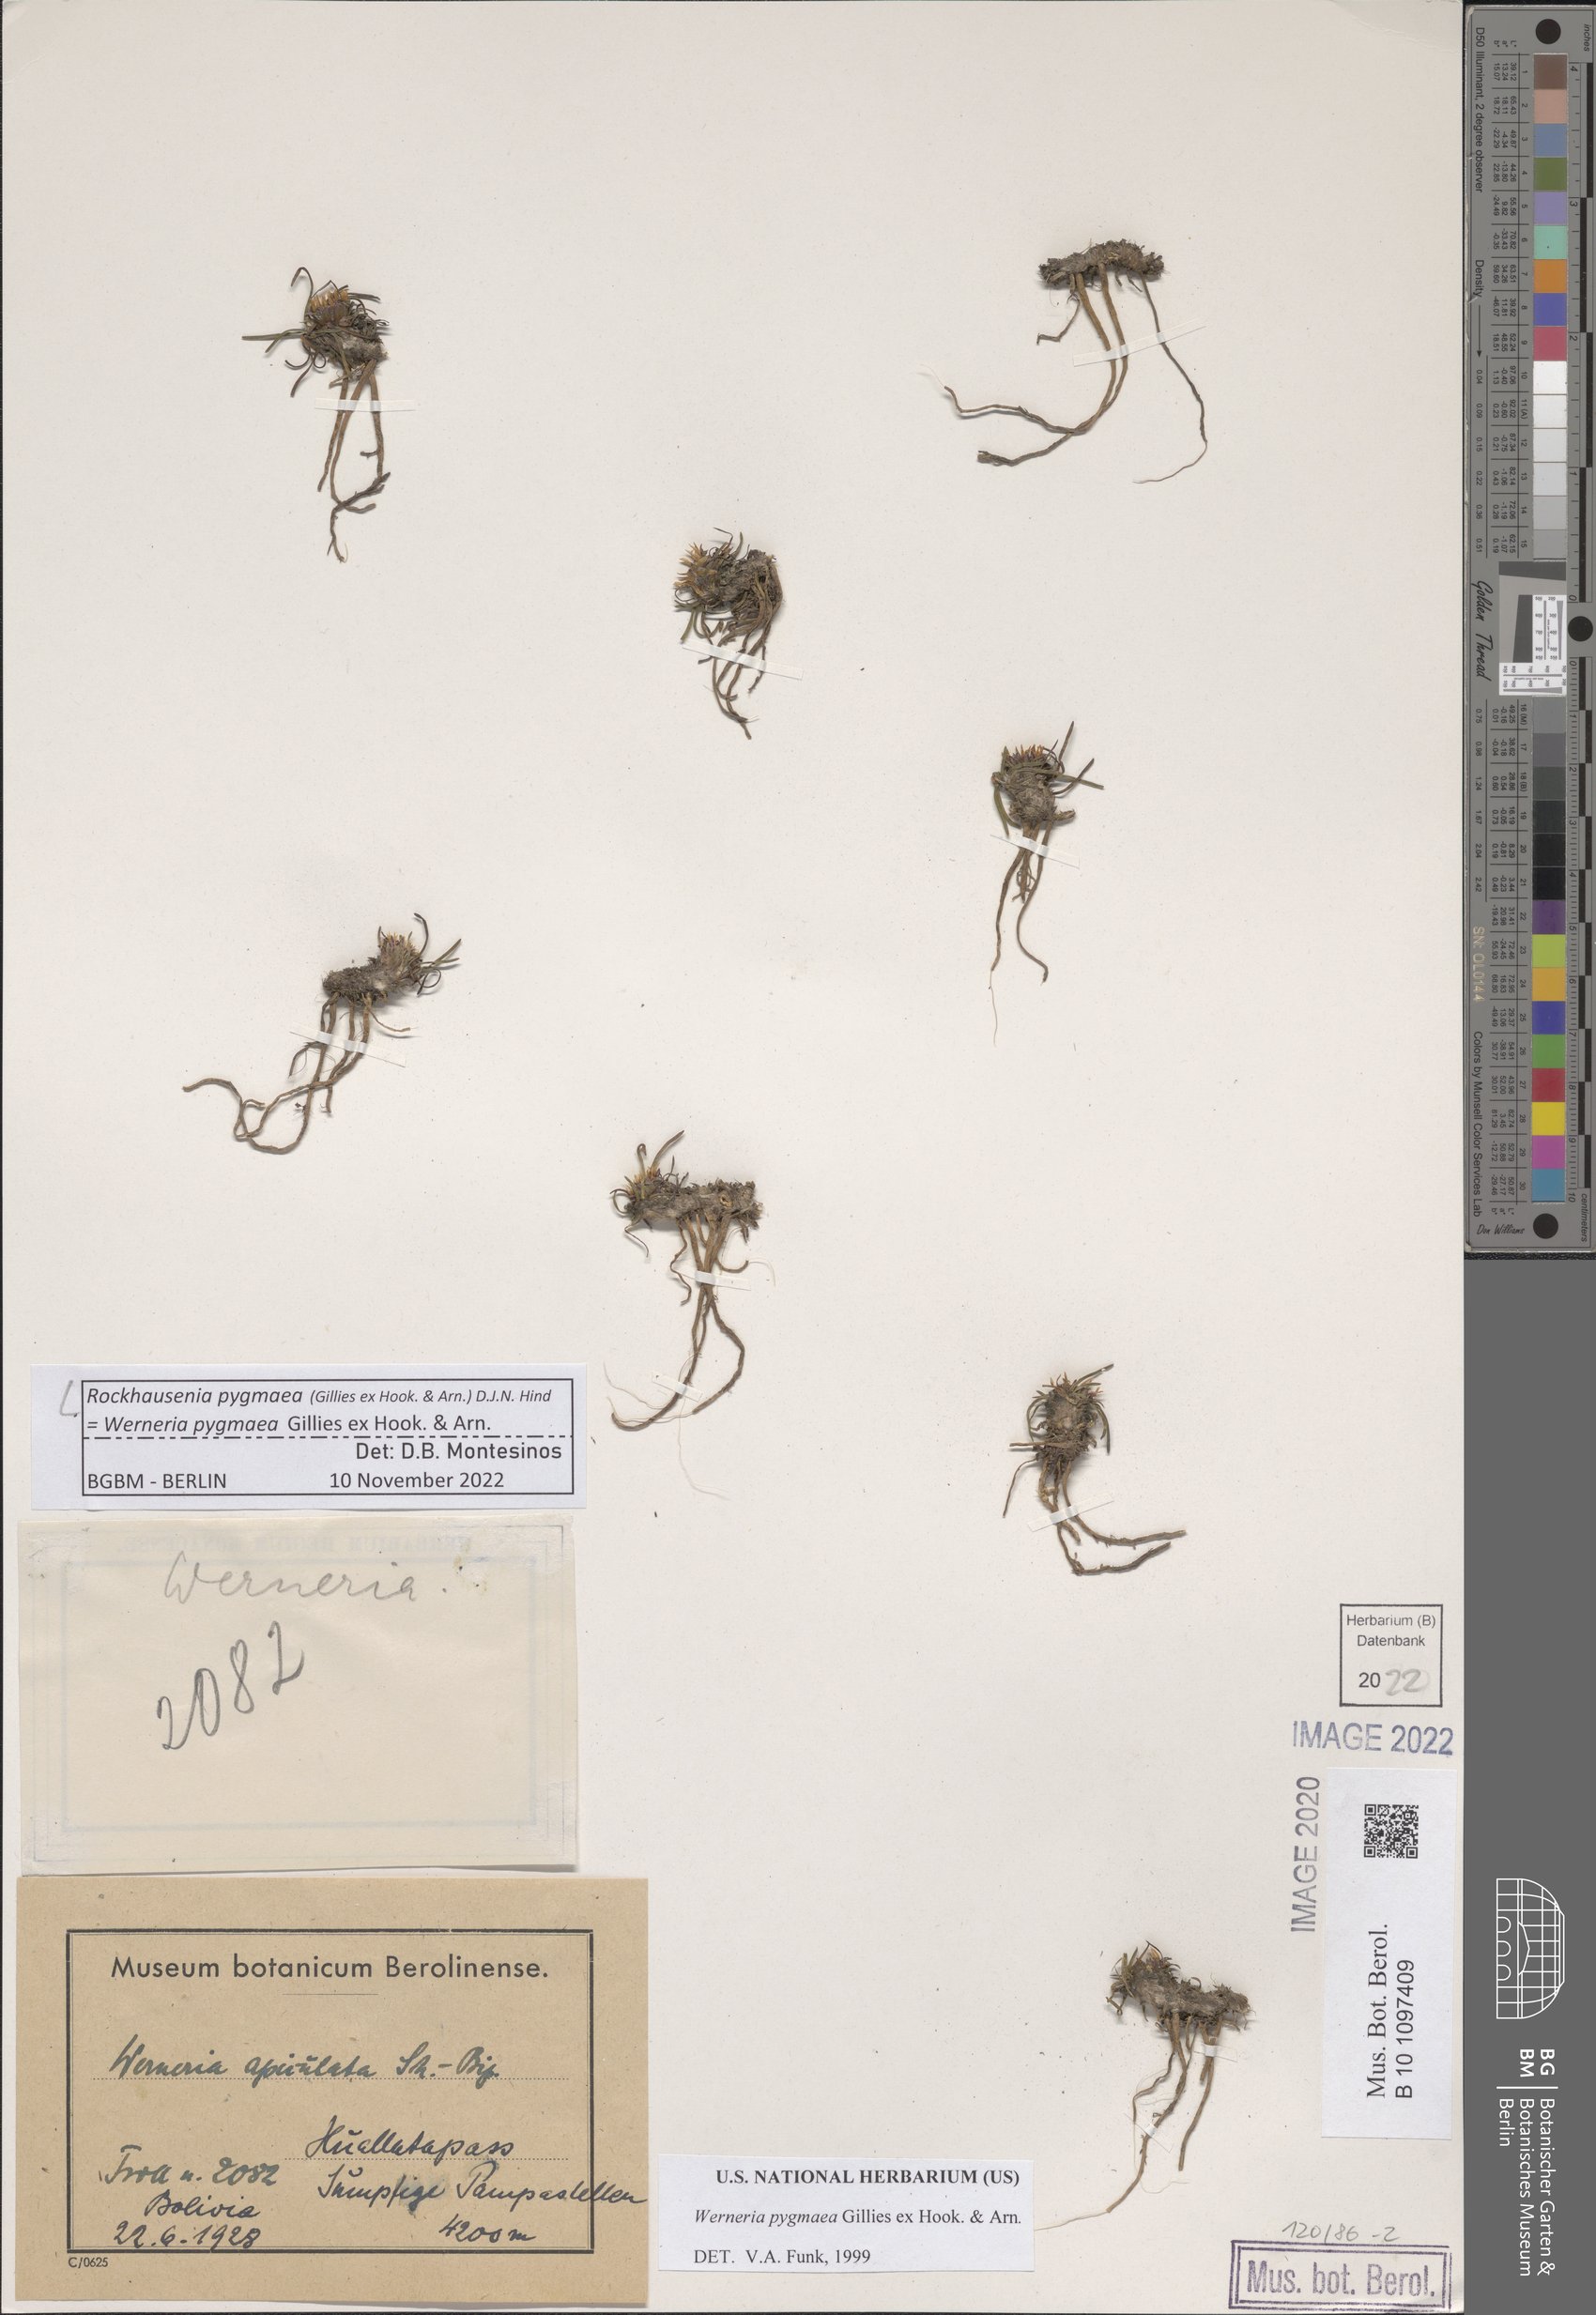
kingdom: Plantae
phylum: Tracheophyta
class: Magnoliopsida
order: Asterales
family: Asteraceae
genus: Rockhausenia
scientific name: Rockhausenia pygmaea
